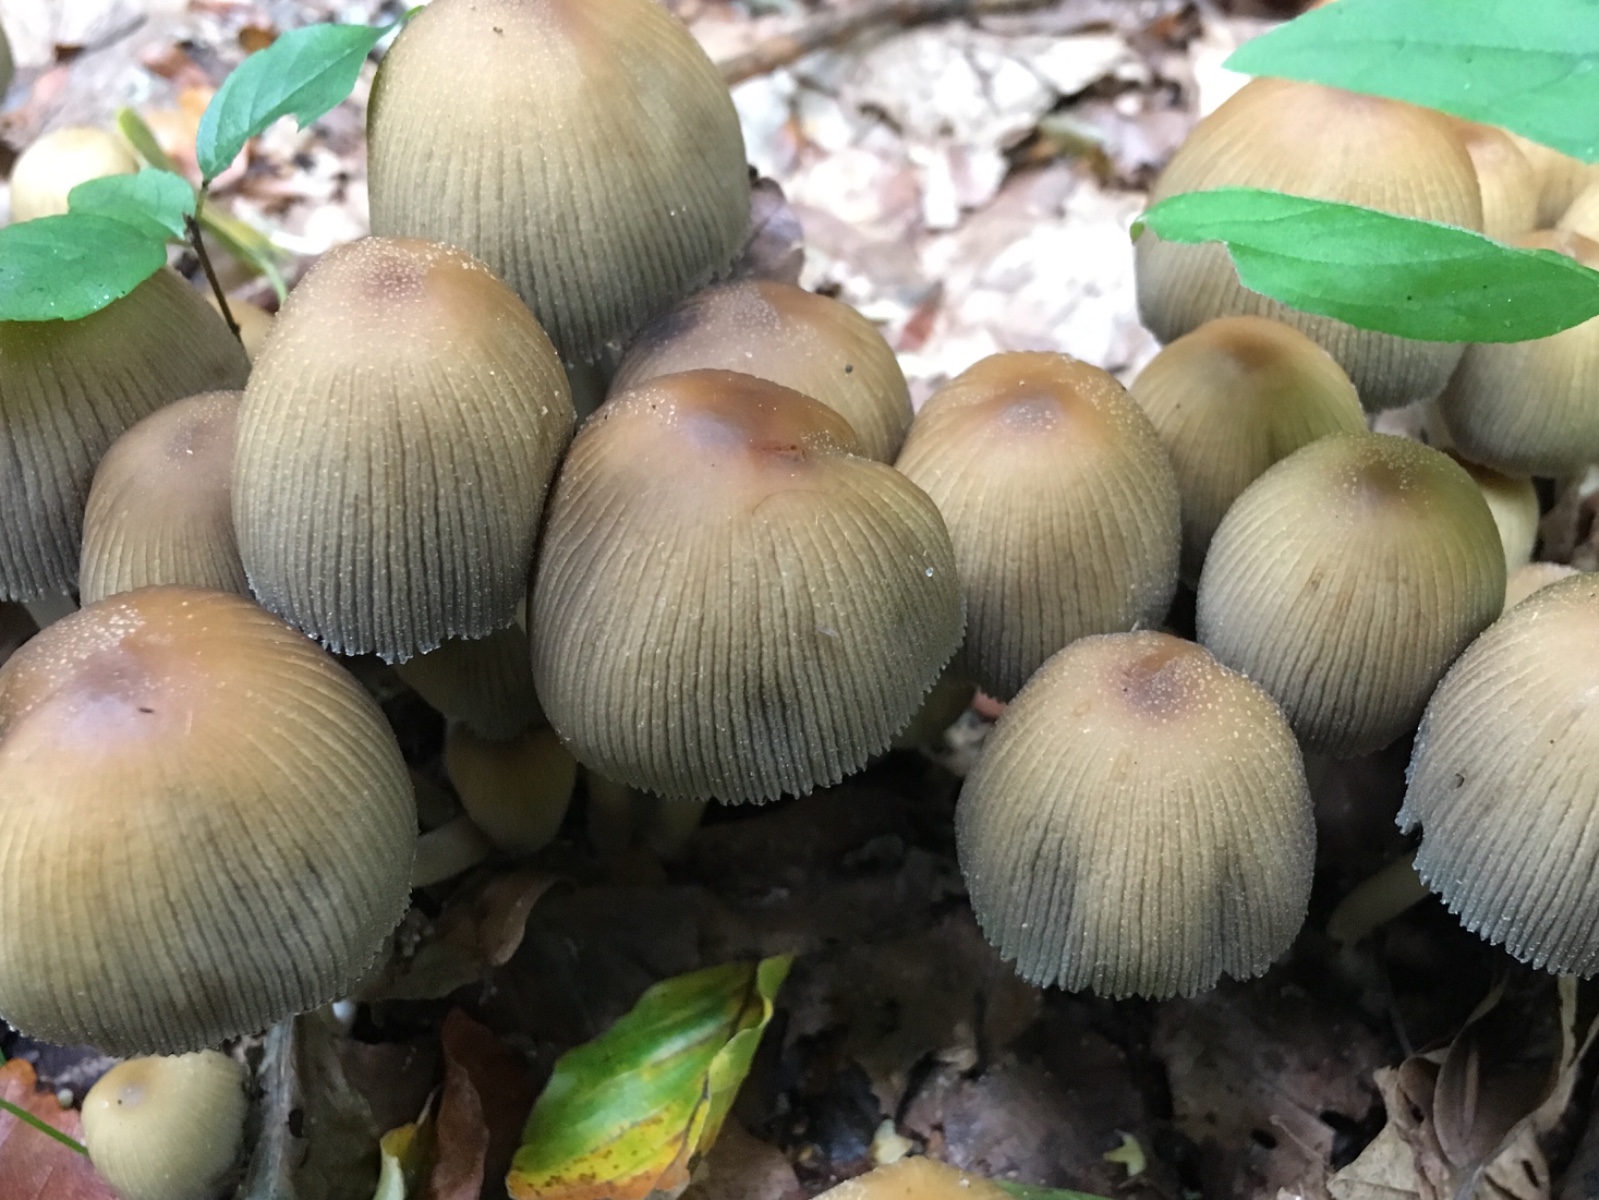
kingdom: Fungi
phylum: Basidiomycota
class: Agaricomycetes
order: Agaricales
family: Psathyrellaceae
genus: Coprinellus
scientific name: Coprinellus micaceus
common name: glimmer-blækhat
